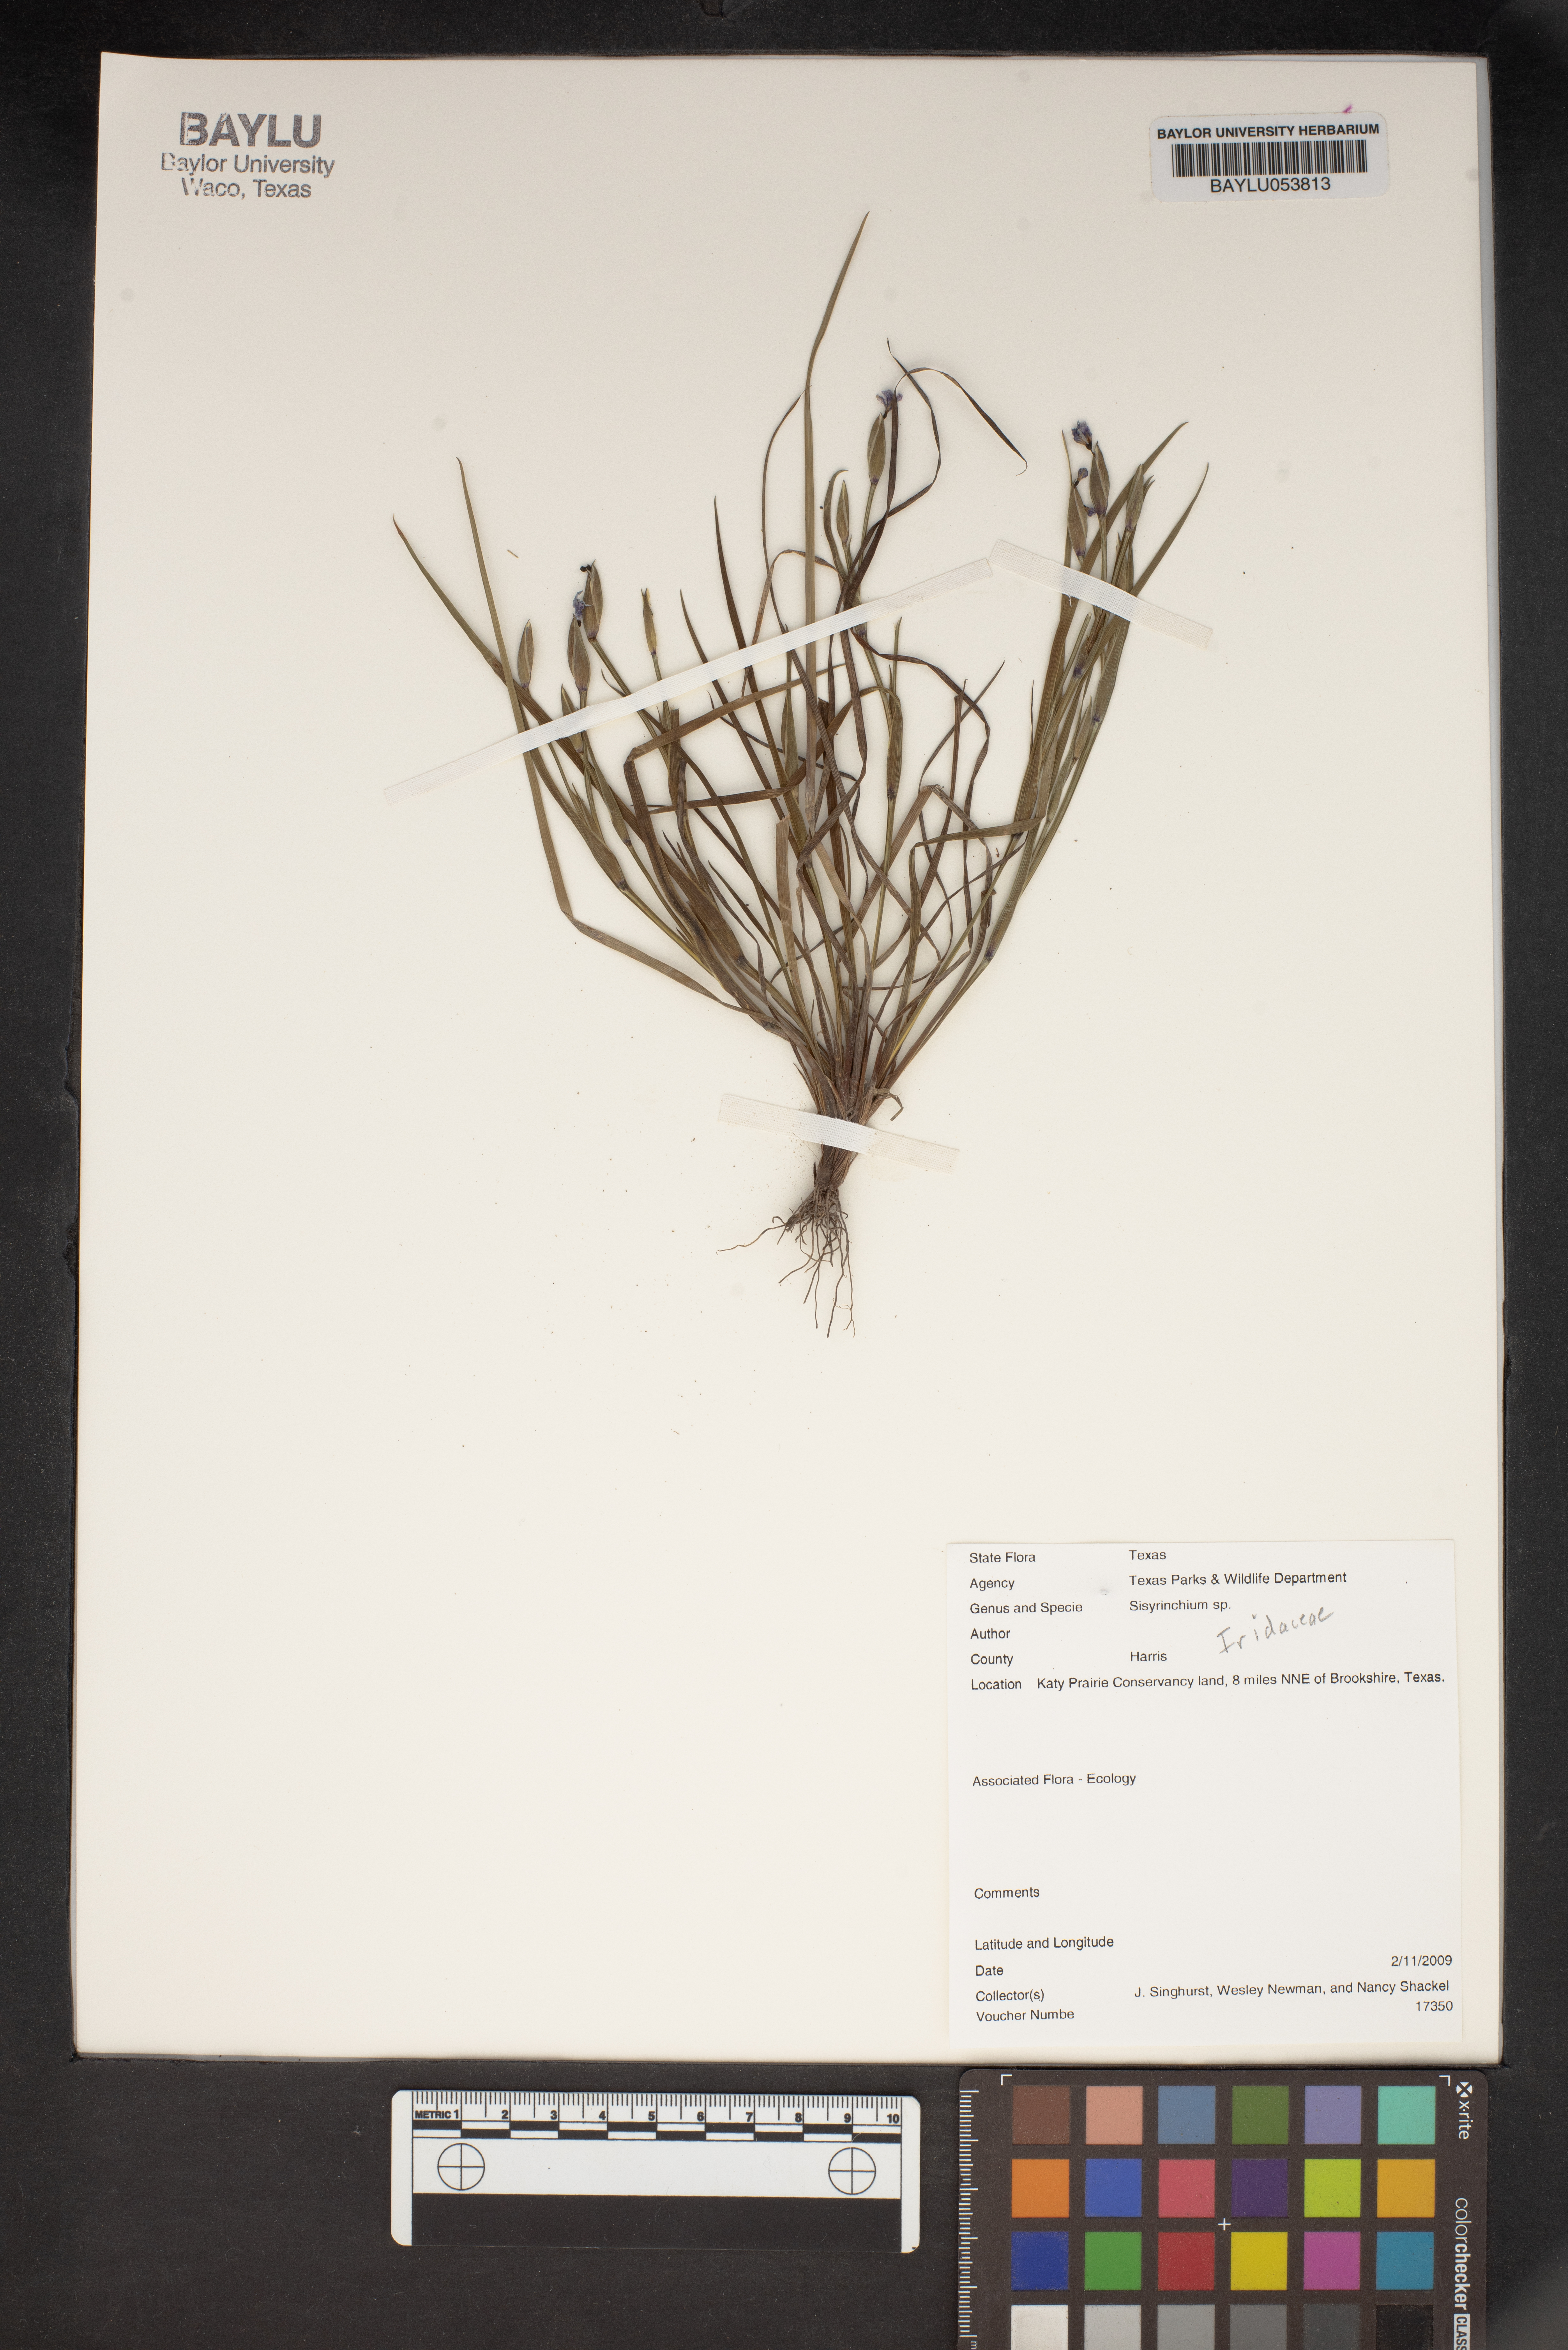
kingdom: Plantae
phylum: Tracheophyta
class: Liliopsida
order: Asparagales
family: Iridaceae
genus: Sisyrinchium
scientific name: Sisyrinchium
